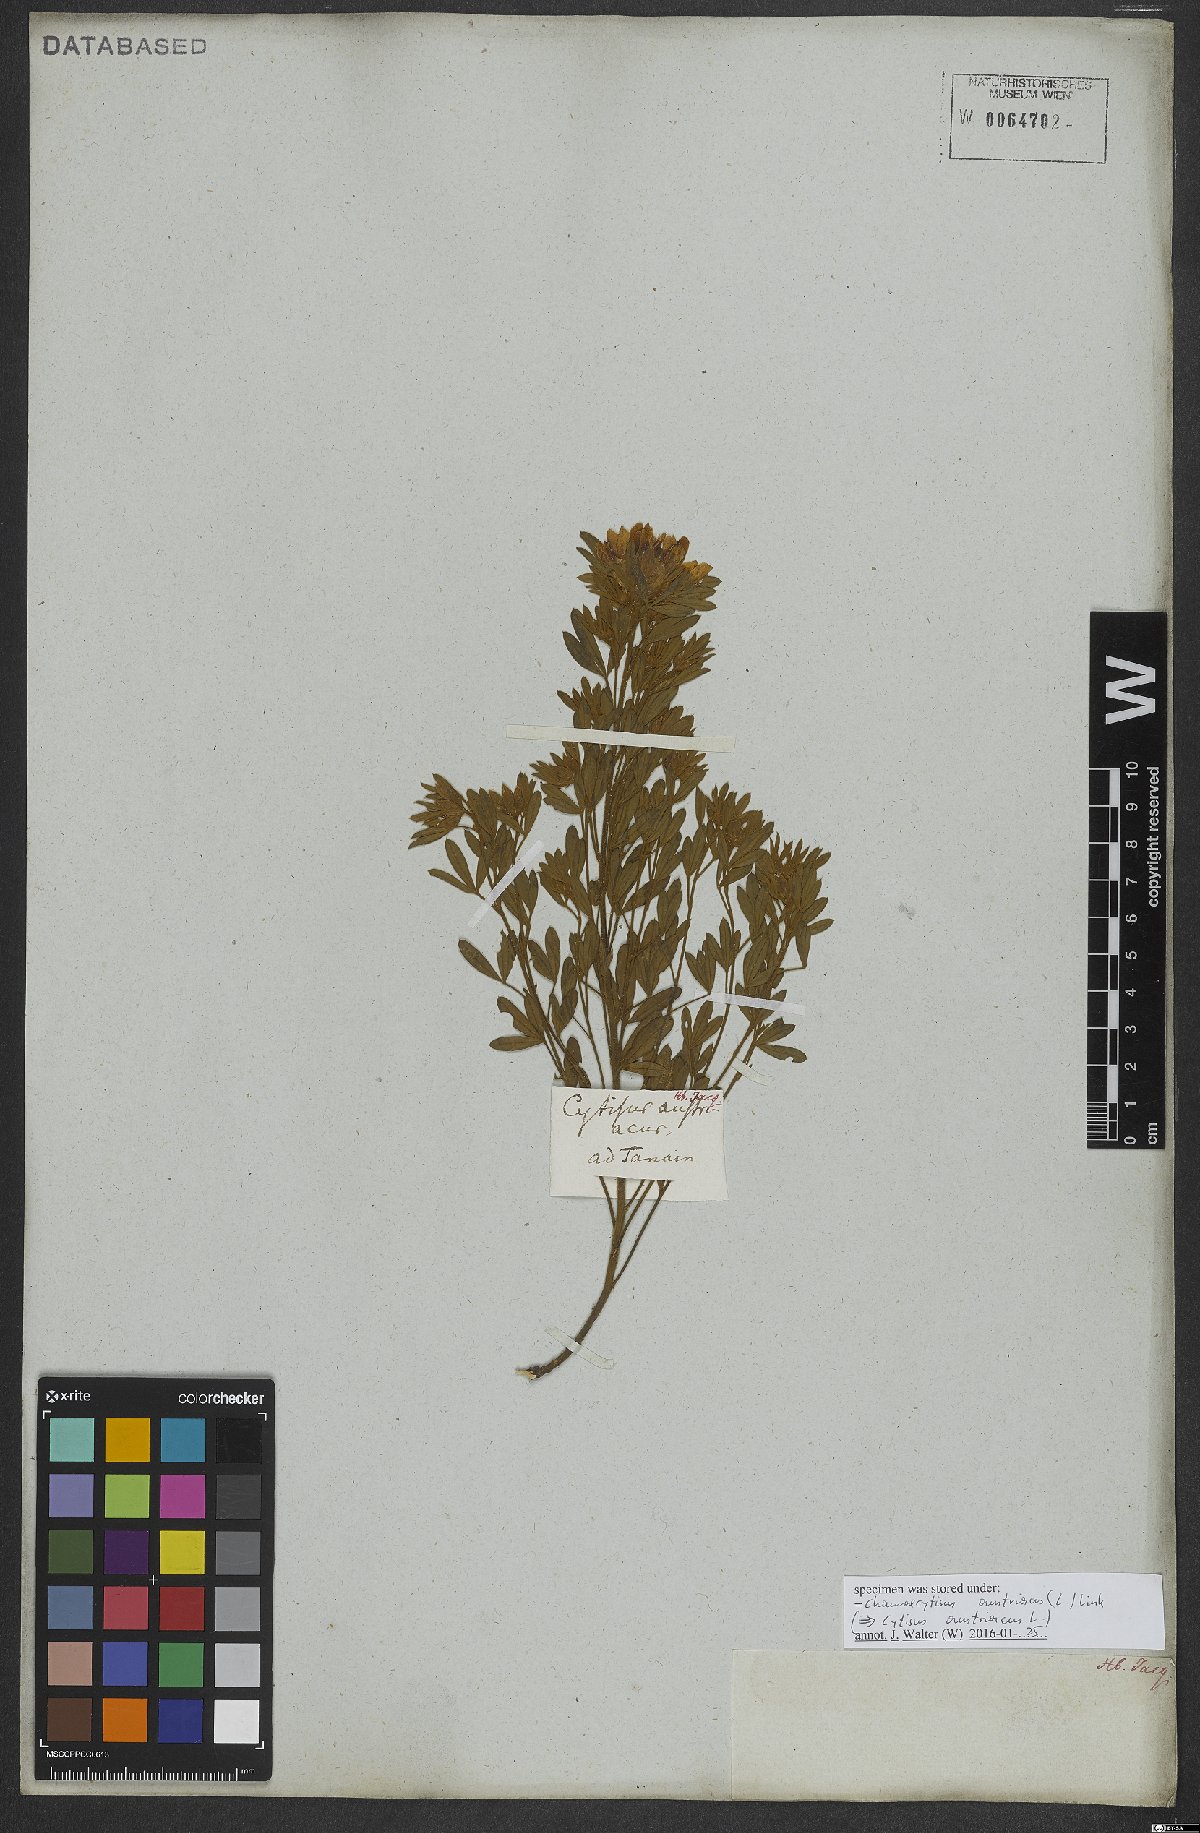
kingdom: Plantae
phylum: Tracheophyta
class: Magnoliopsida
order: Fabales
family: Fabaceae
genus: Chamaecytisus
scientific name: Chamaecytisus austriacus
